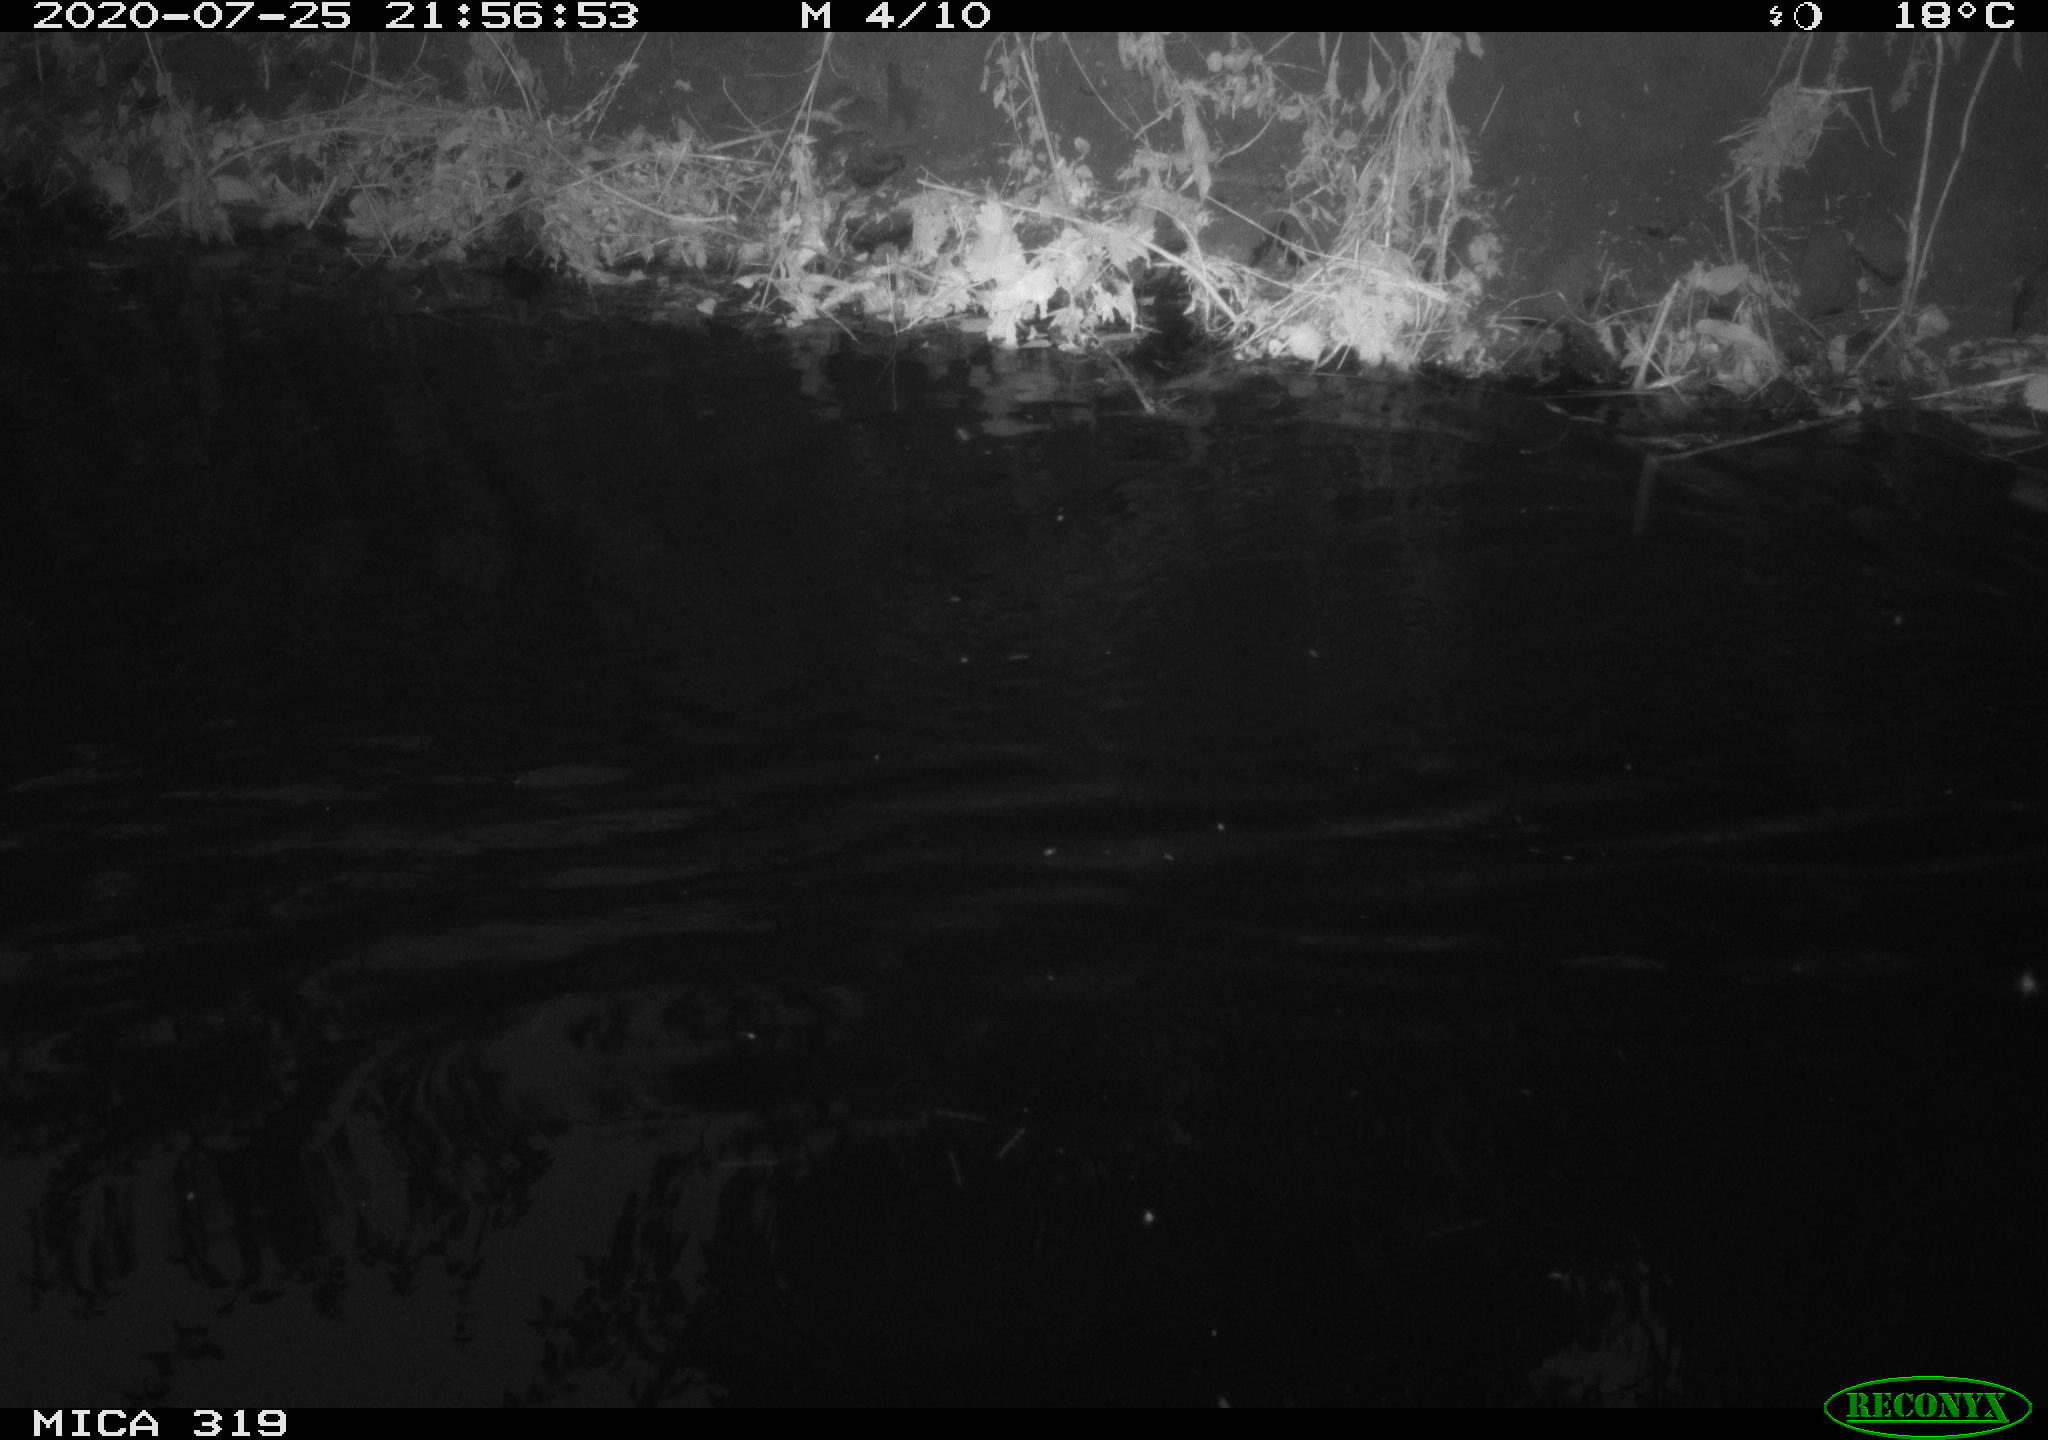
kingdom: Animalia
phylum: Chordata
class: Aves
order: Anseriformes
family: Anatidae
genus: Anas
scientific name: Anas platyrhynchos
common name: Mallard
